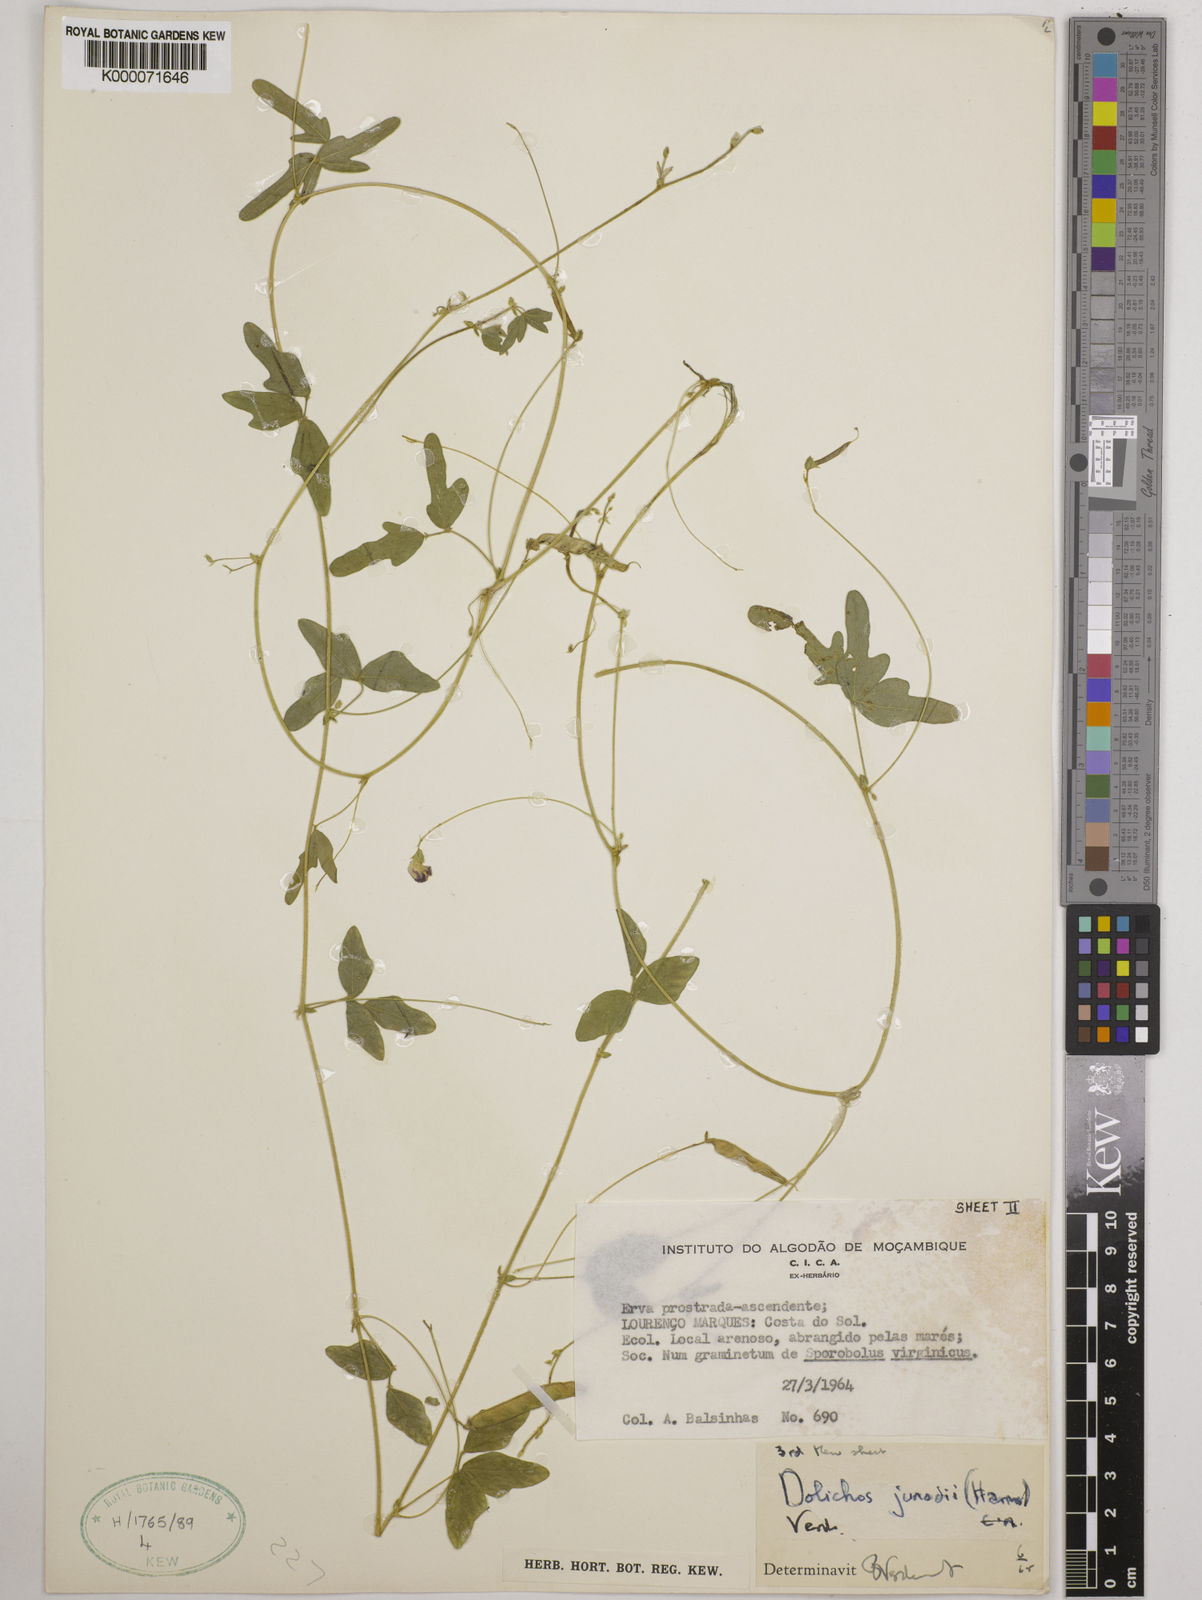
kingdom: Plantae
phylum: Tracheophyta
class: Magnoliopsida
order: Fabales
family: Fabaceae
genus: Dolichos
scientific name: Dolichos junodii
